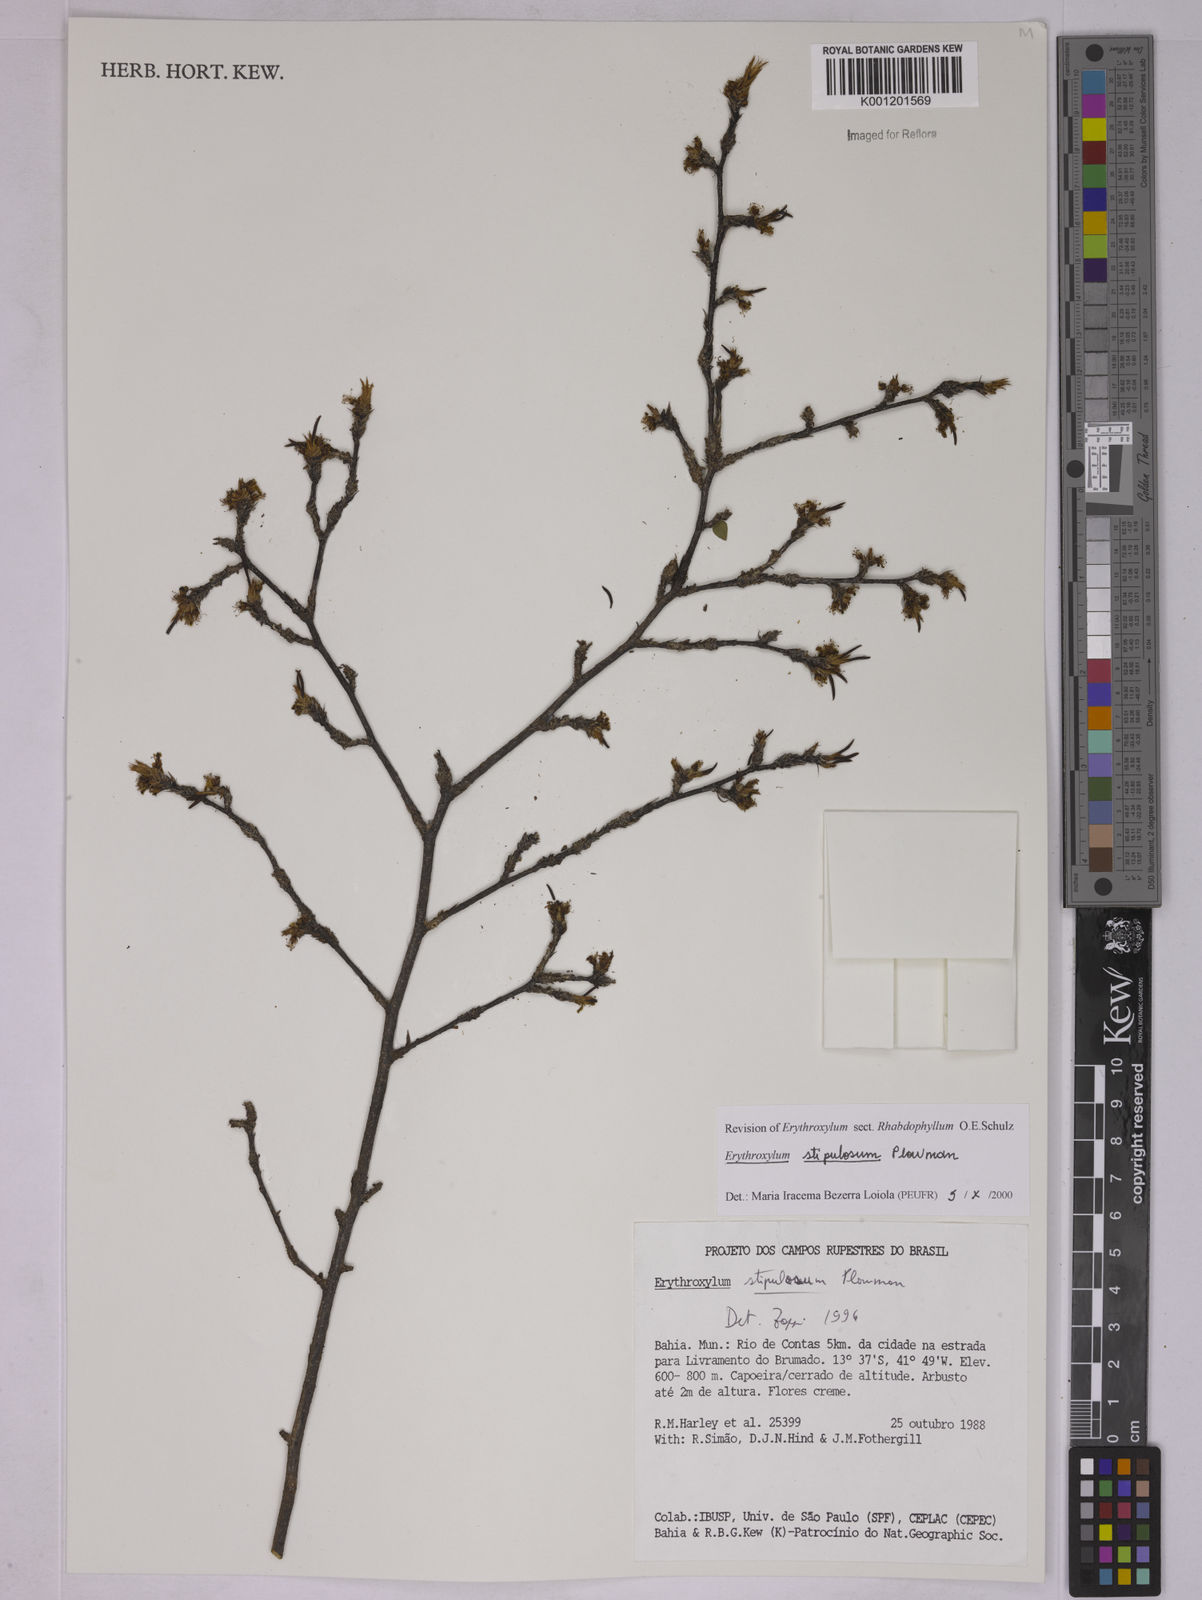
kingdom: Plantae
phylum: Tracheophyta
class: Magnoliopsida
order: Malpighiales
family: Erythroxylaceae
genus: Erythroxylum
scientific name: Erythroxylum stipulosum
